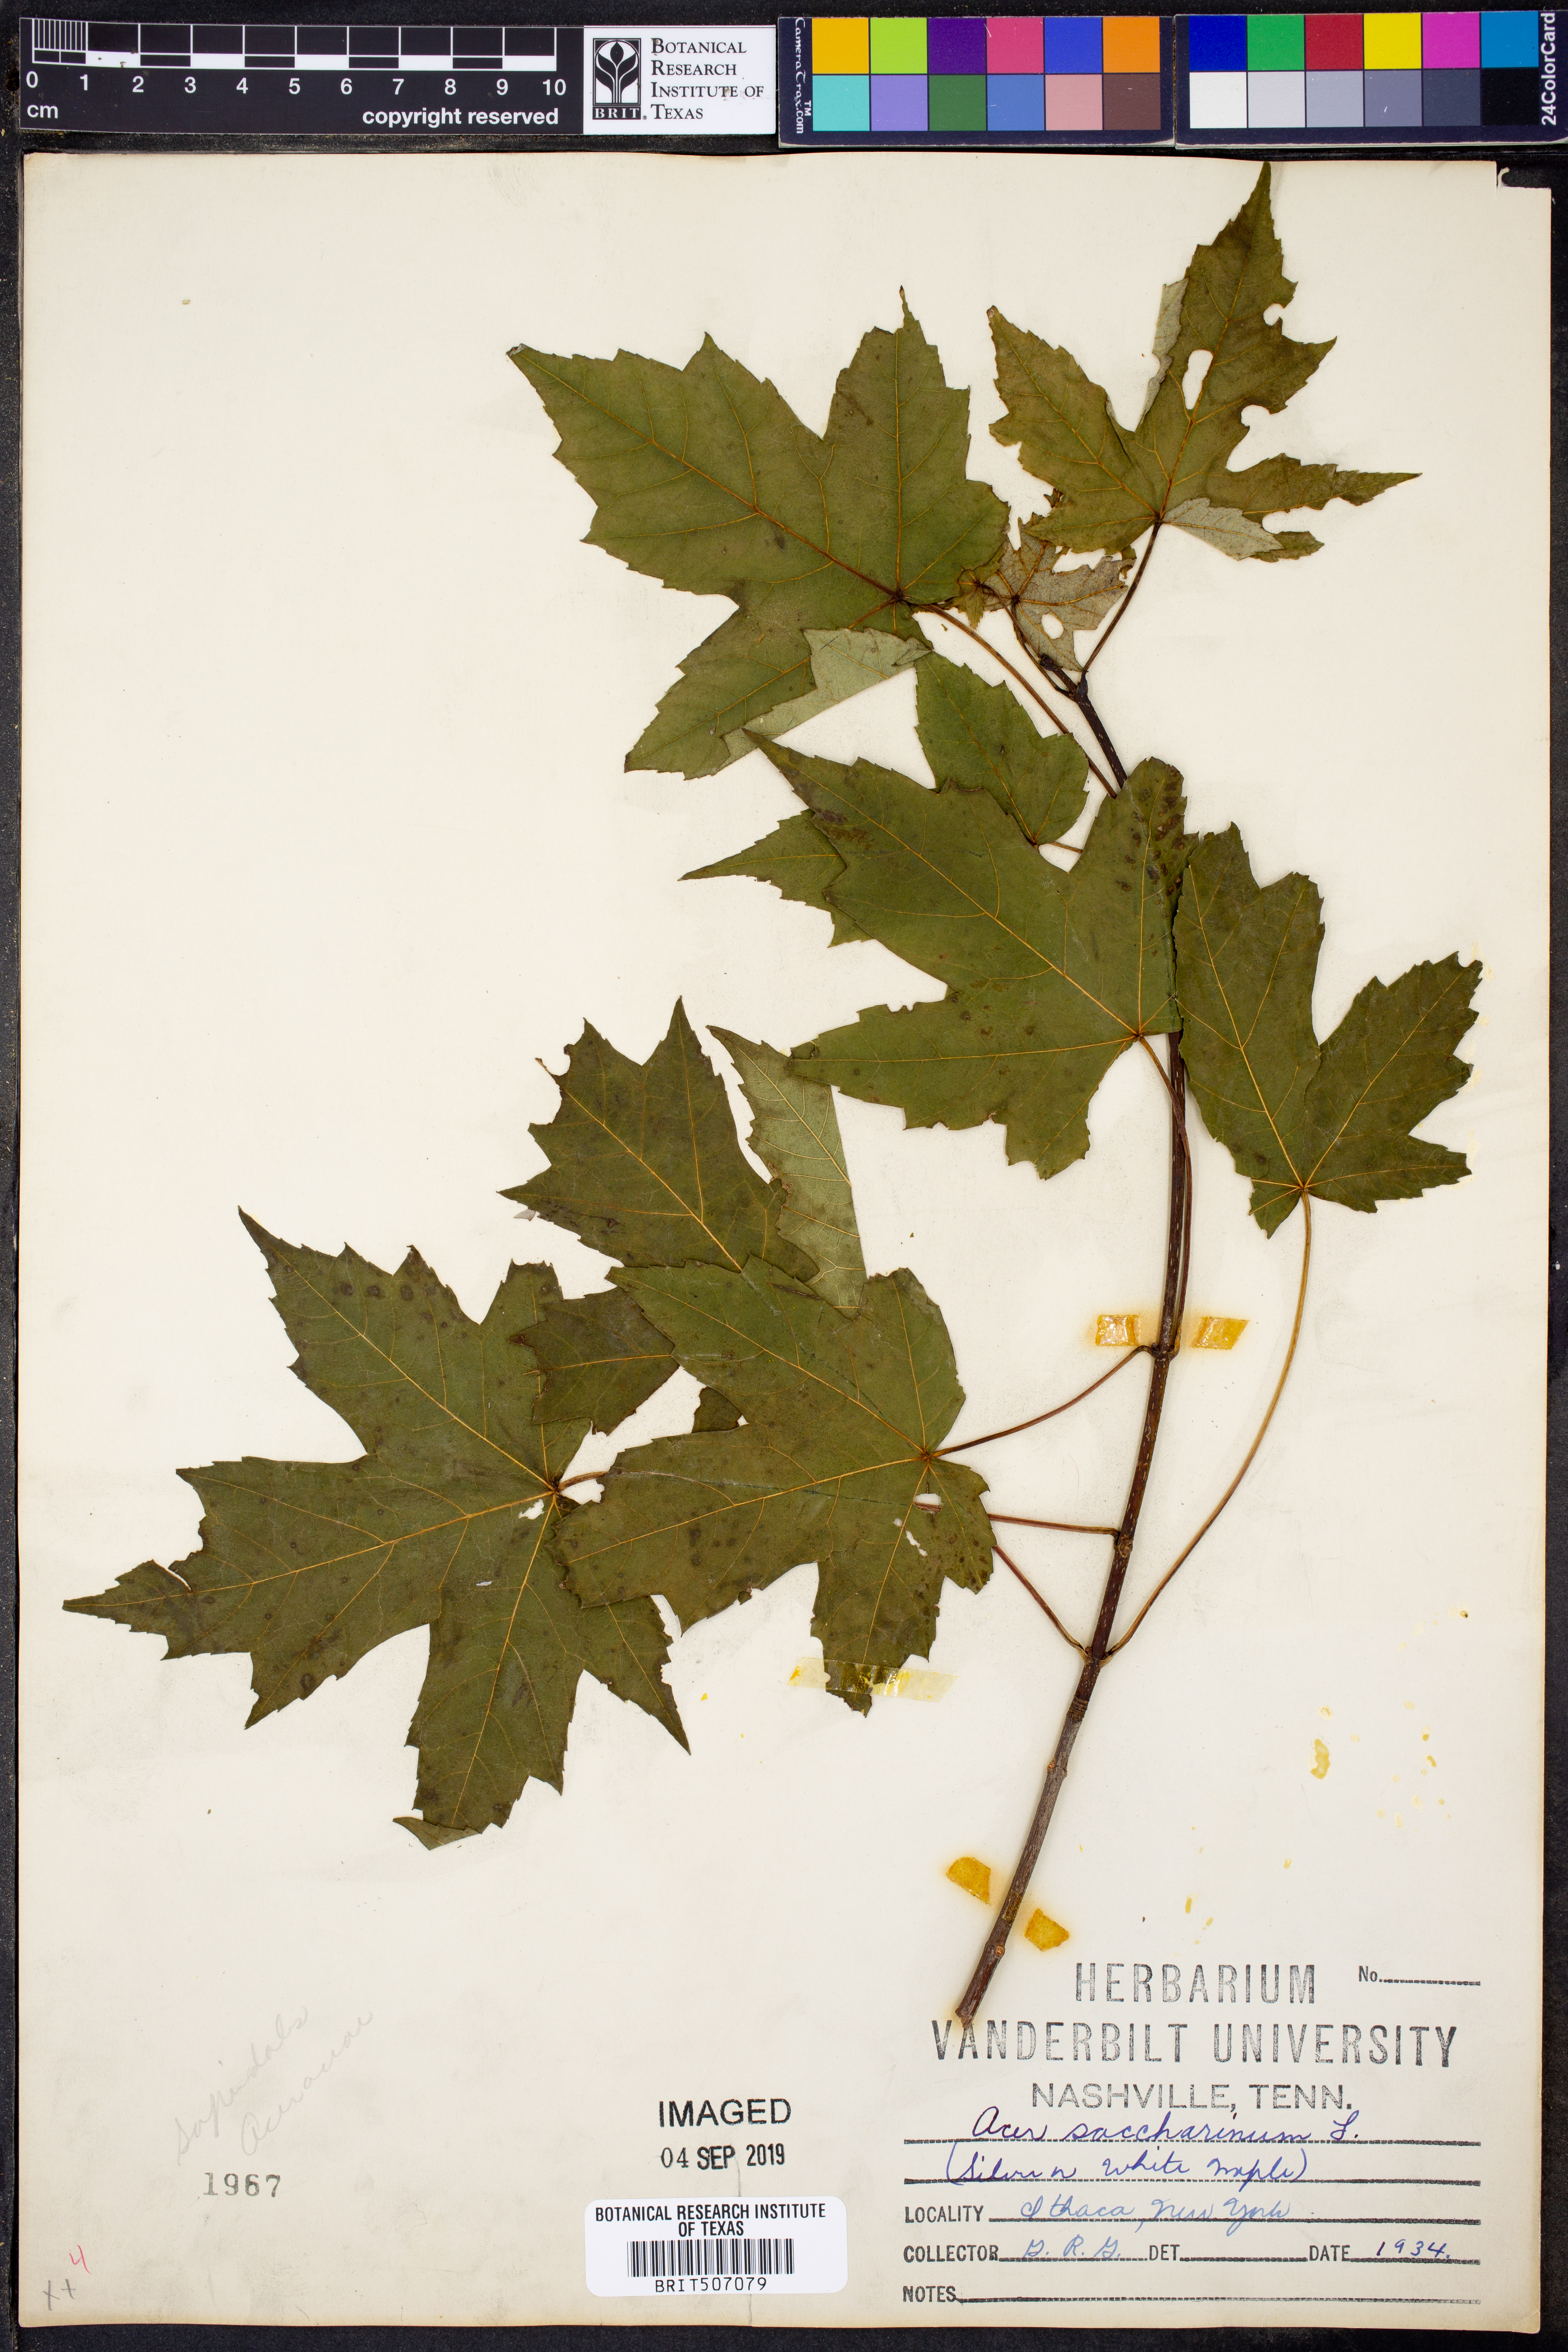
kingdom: Plantae
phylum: Tracheophyta
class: Magnoliopsida
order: Sapindales
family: Sapindaceae
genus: Acer
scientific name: Acer saccharinum
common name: Silver maple
